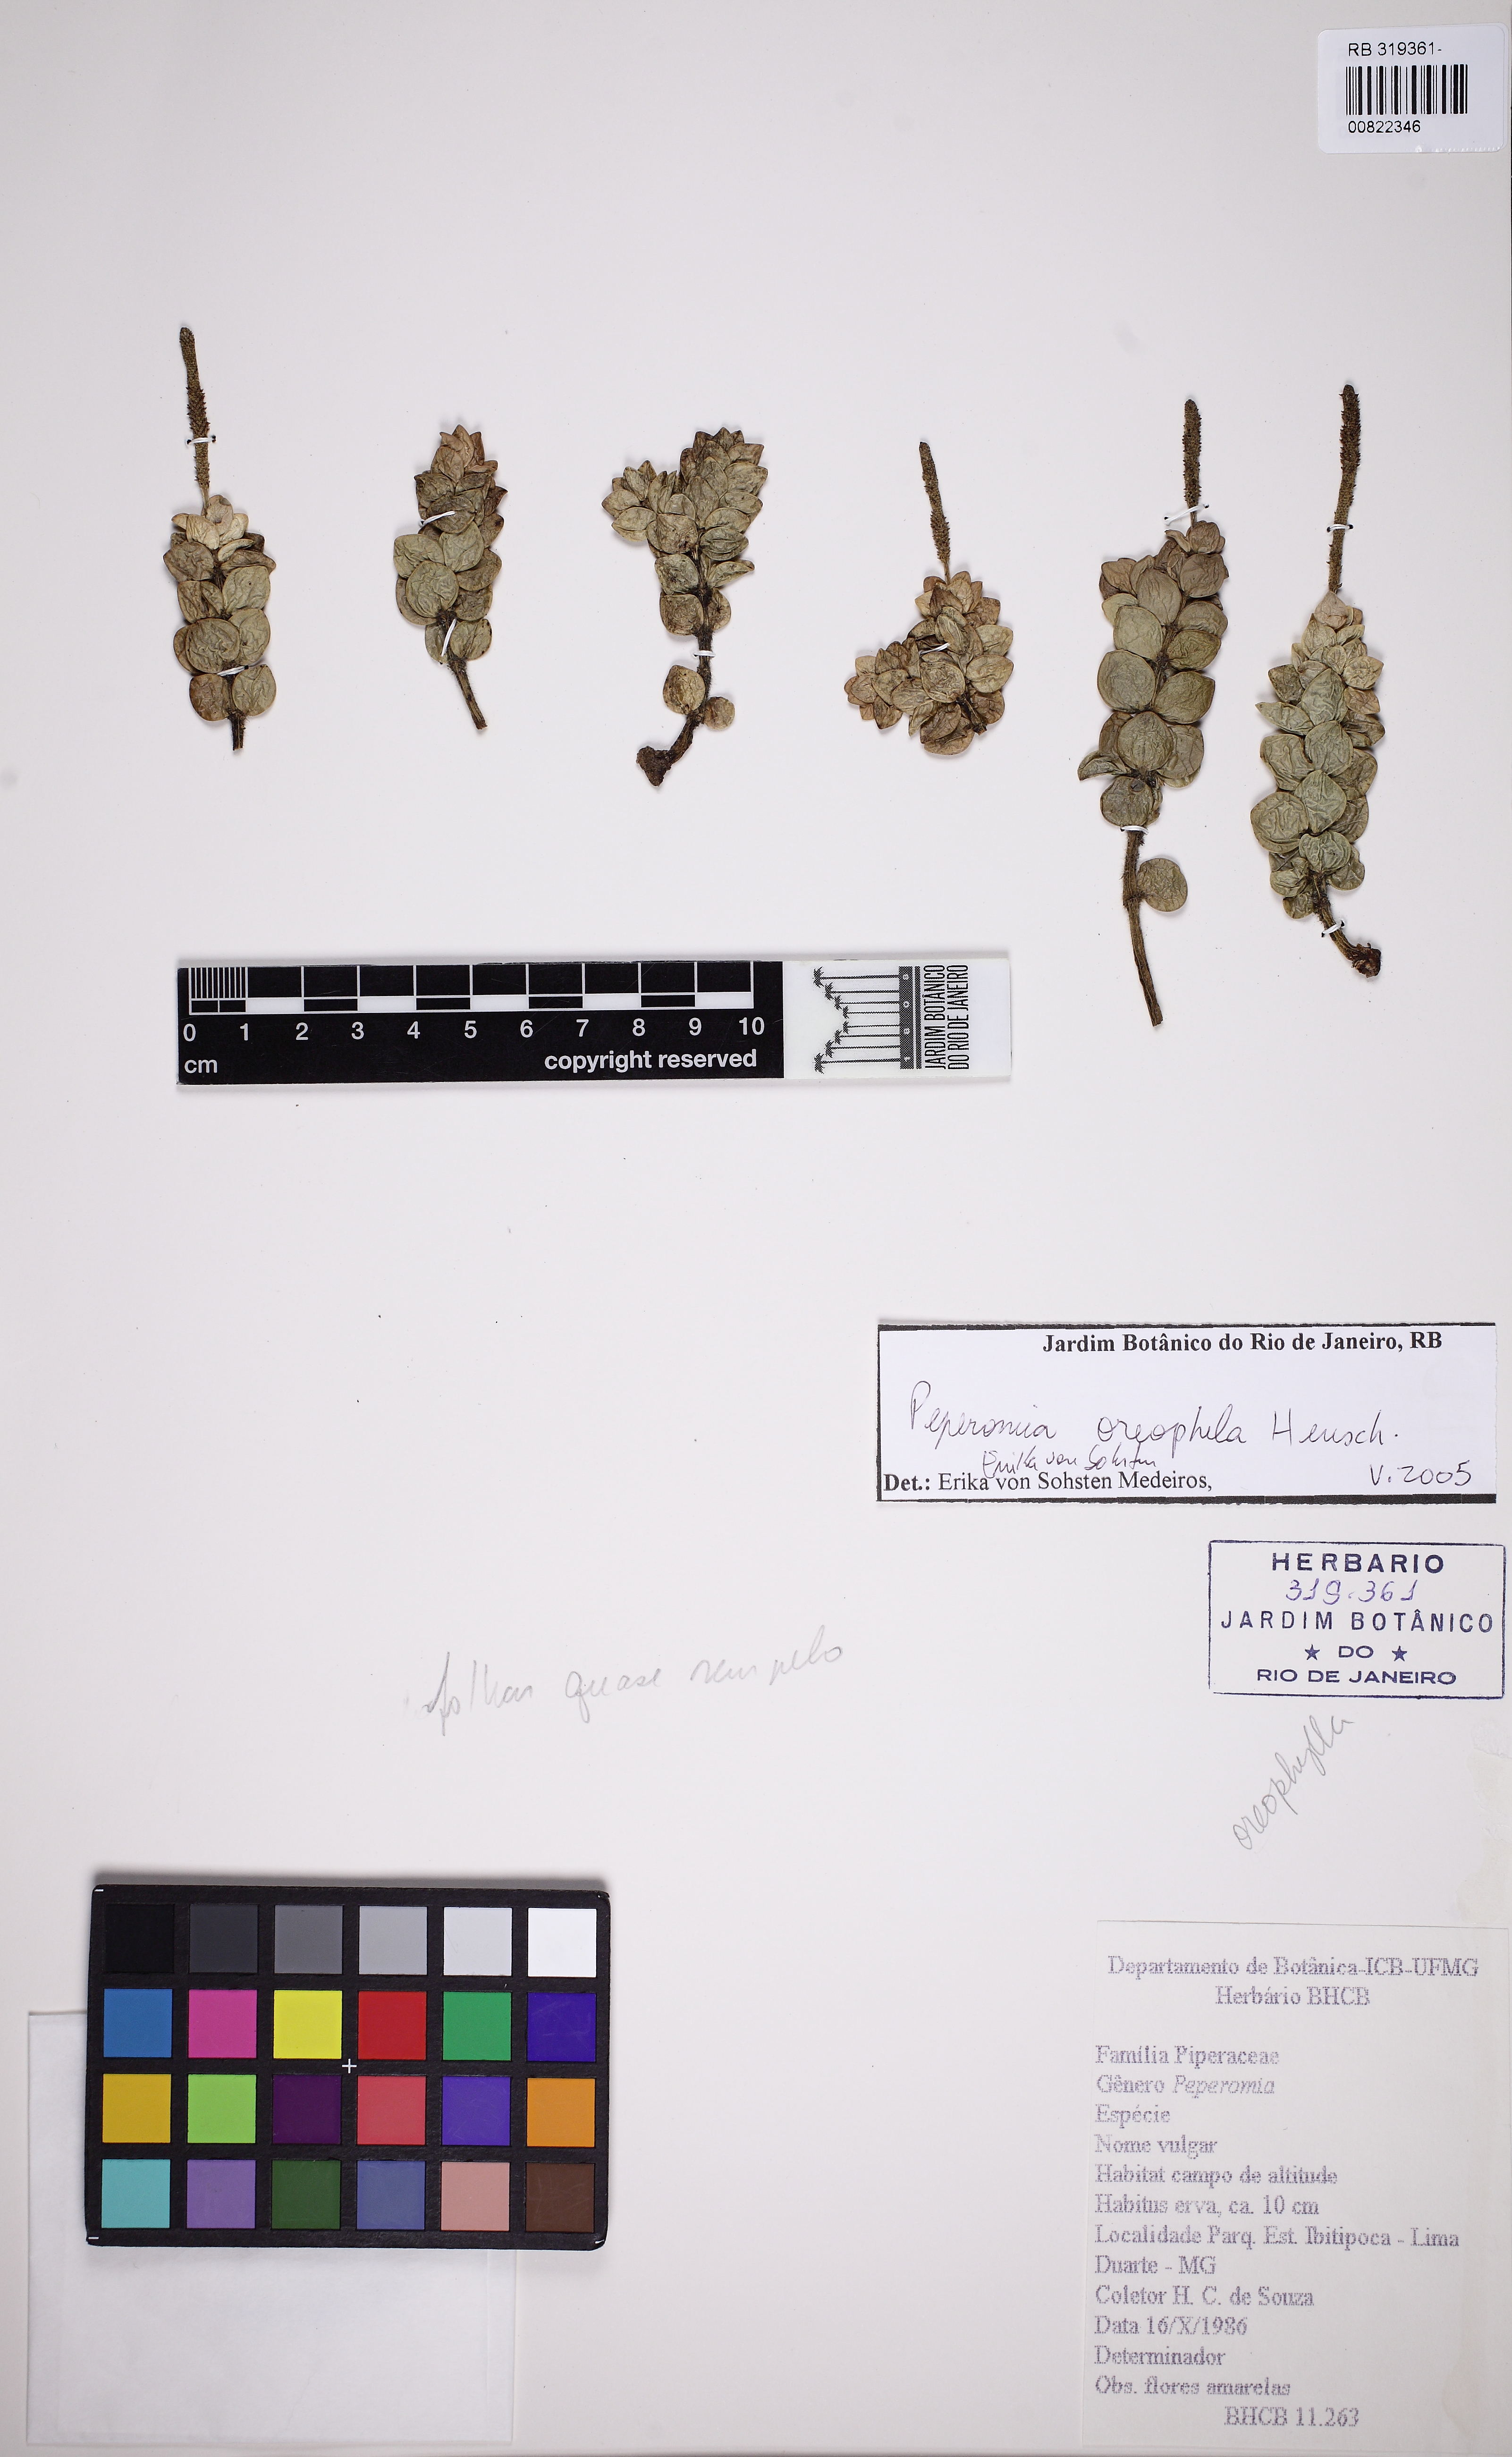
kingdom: Plantae
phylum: Tracheophyta
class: Magnoliopsida
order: Piperales
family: Piperaceae
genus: Peperomia
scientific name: Peperomia oreophila
